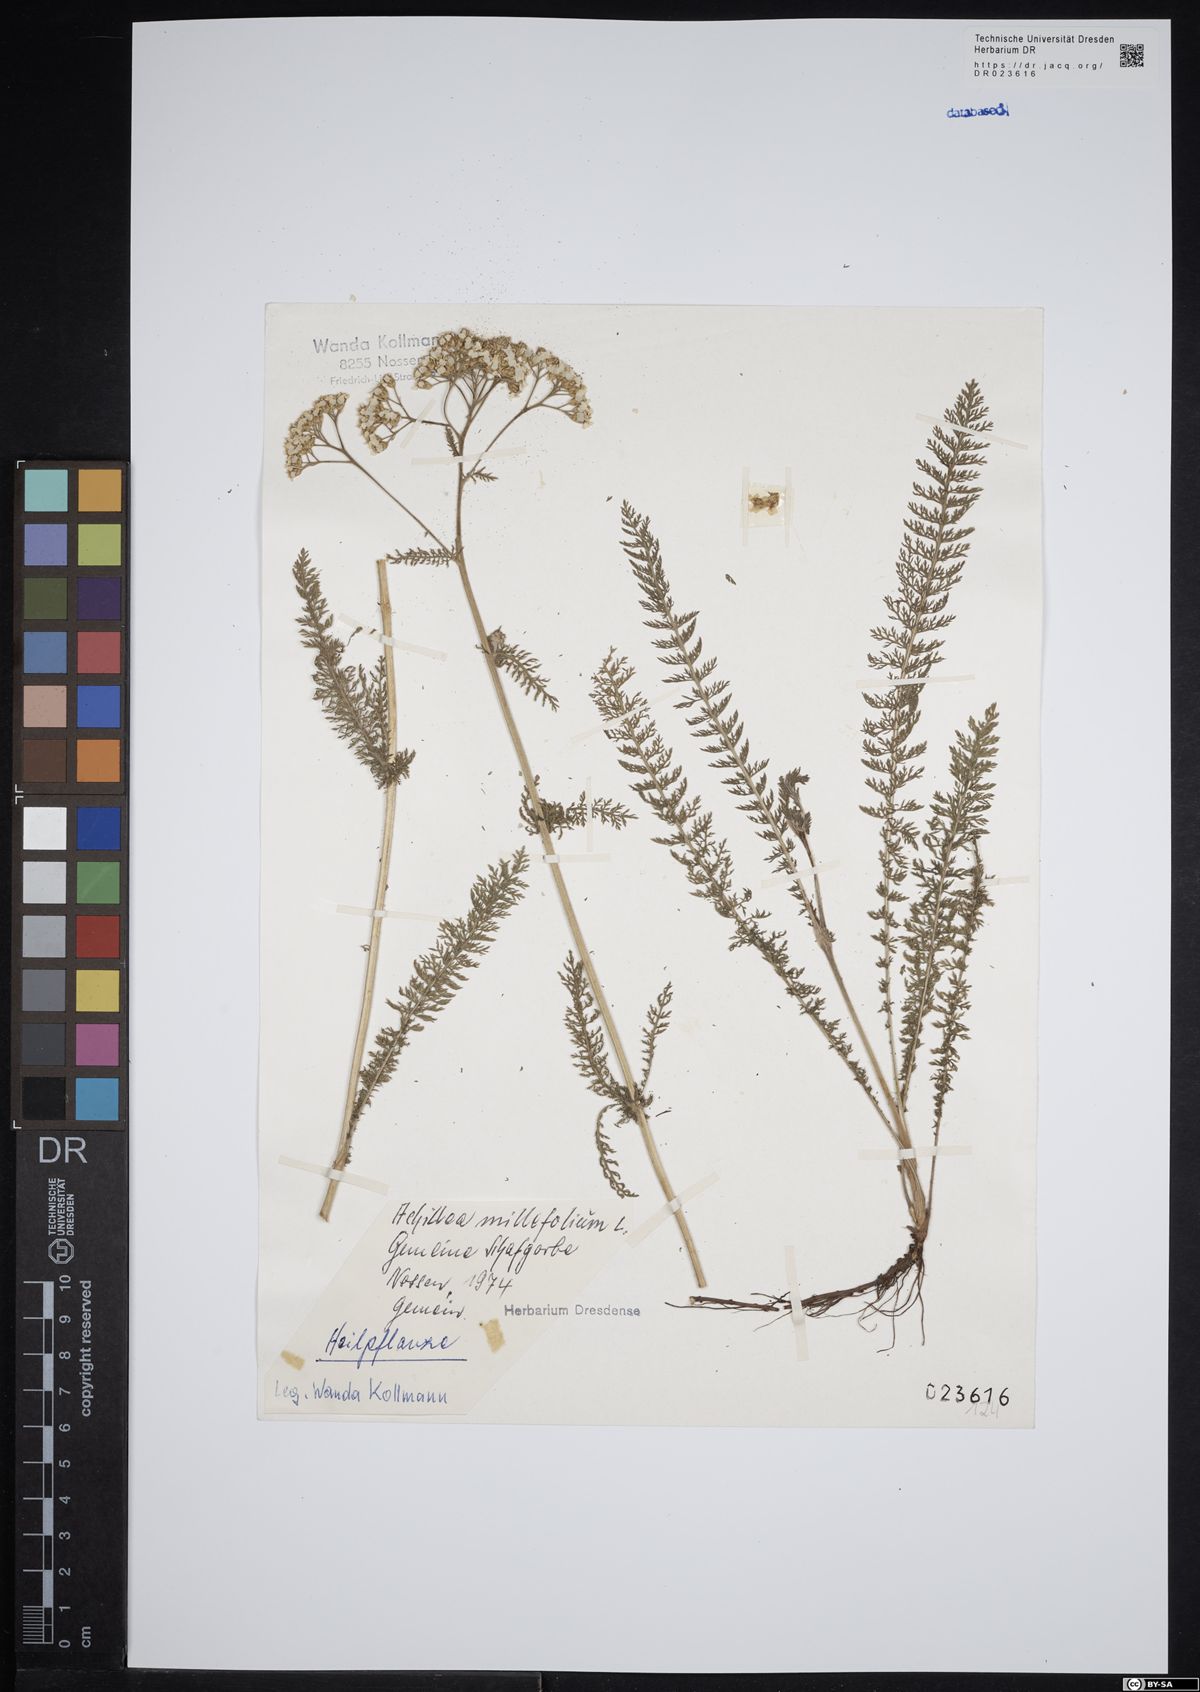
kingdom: Plantae
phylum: Tracheophyta
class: Magnoliopsida
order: Asterales
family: Asteraceae
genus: Achillea
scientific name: Achillea millefolium
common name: Yarrow
